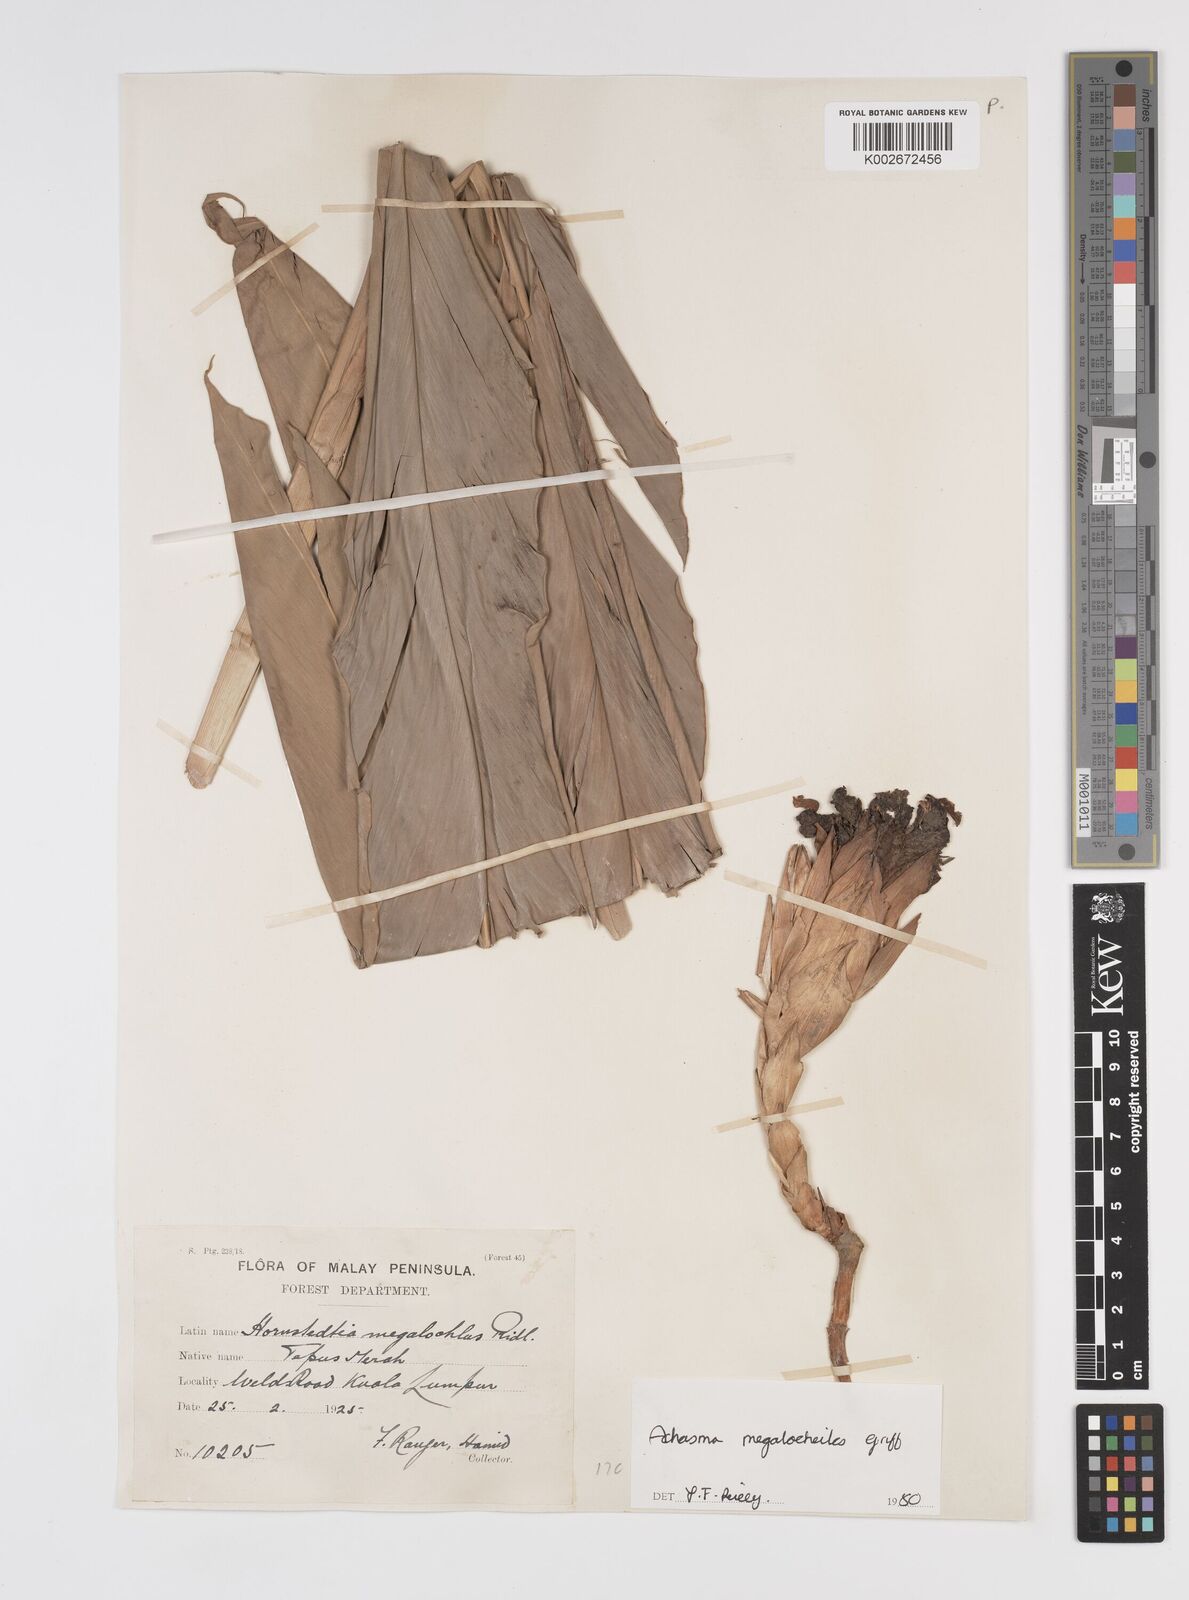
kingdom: Plantae
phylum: Tracheophyta
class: Liliopsida
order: Zingiberales
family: Zingiberaceae
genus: Etlingera
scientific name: Etlingera littoralis
